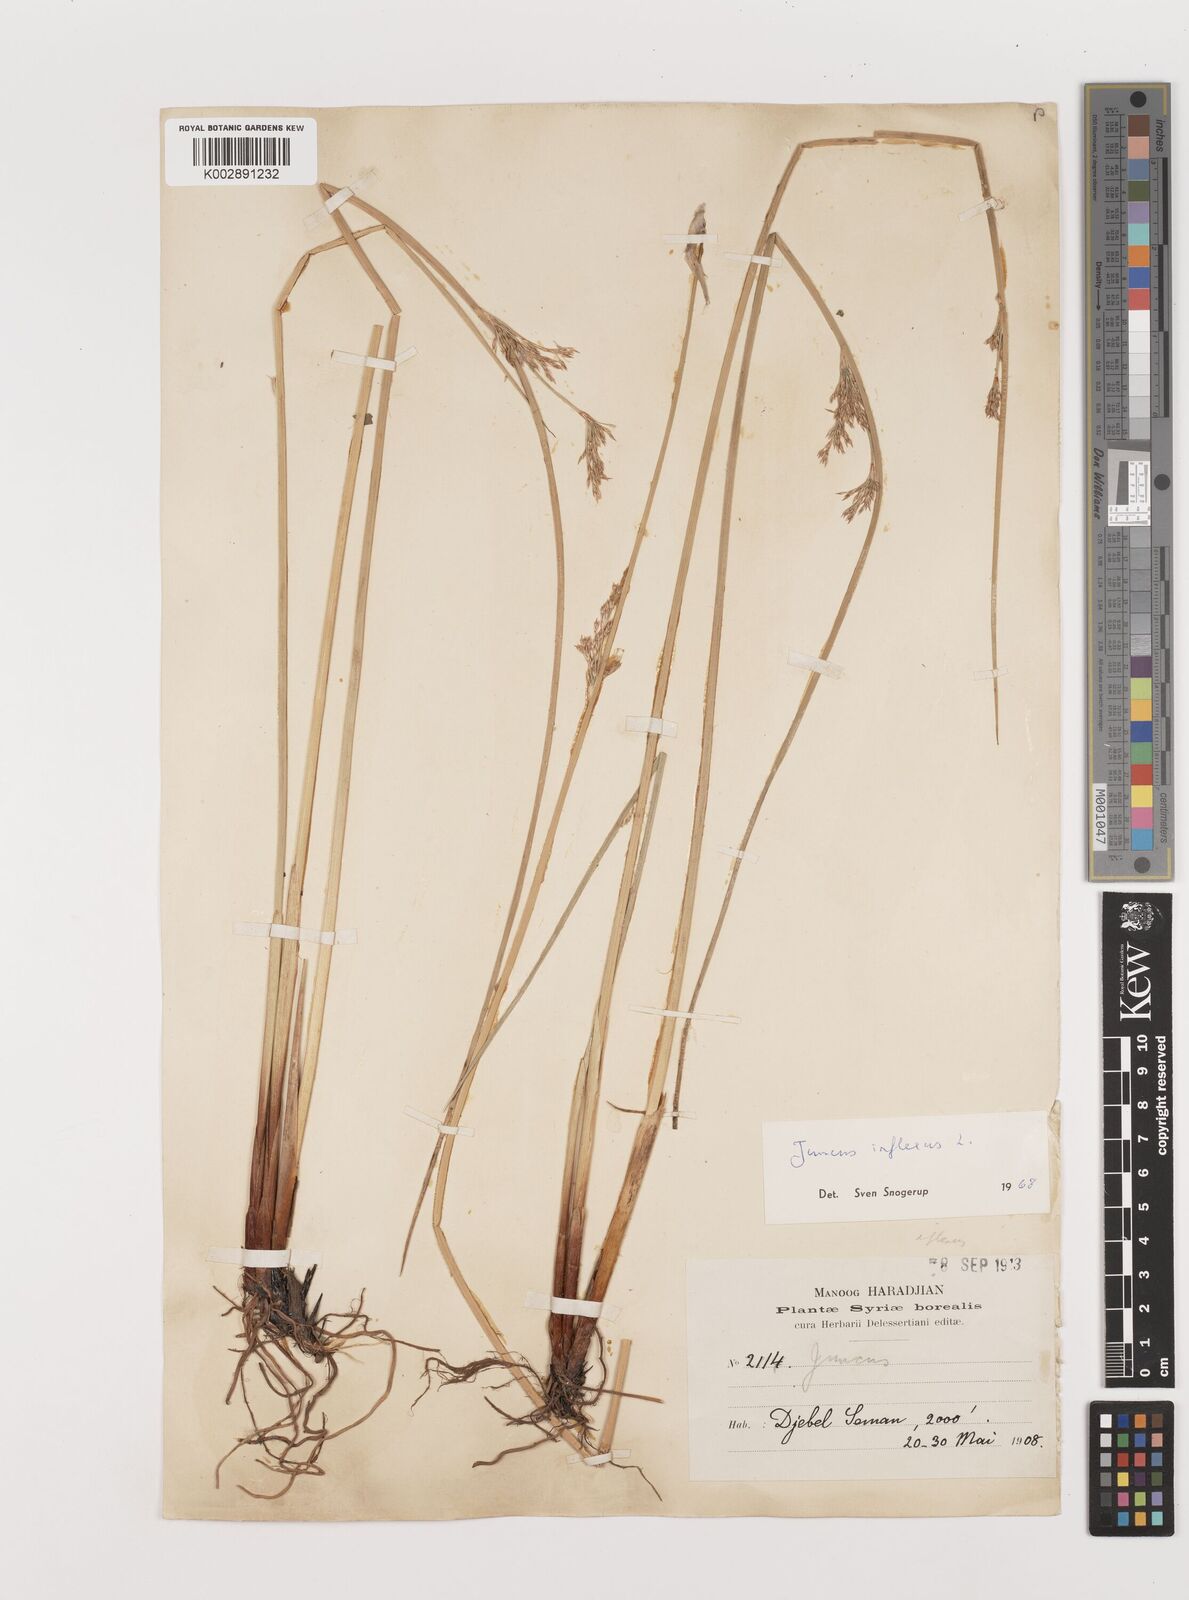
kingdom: Plantae
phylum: Tracheophyta
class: Liliopsida
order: Poales
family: Juncaceae
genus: Juncus
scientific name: Juncus inflexus
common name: Hard rush
